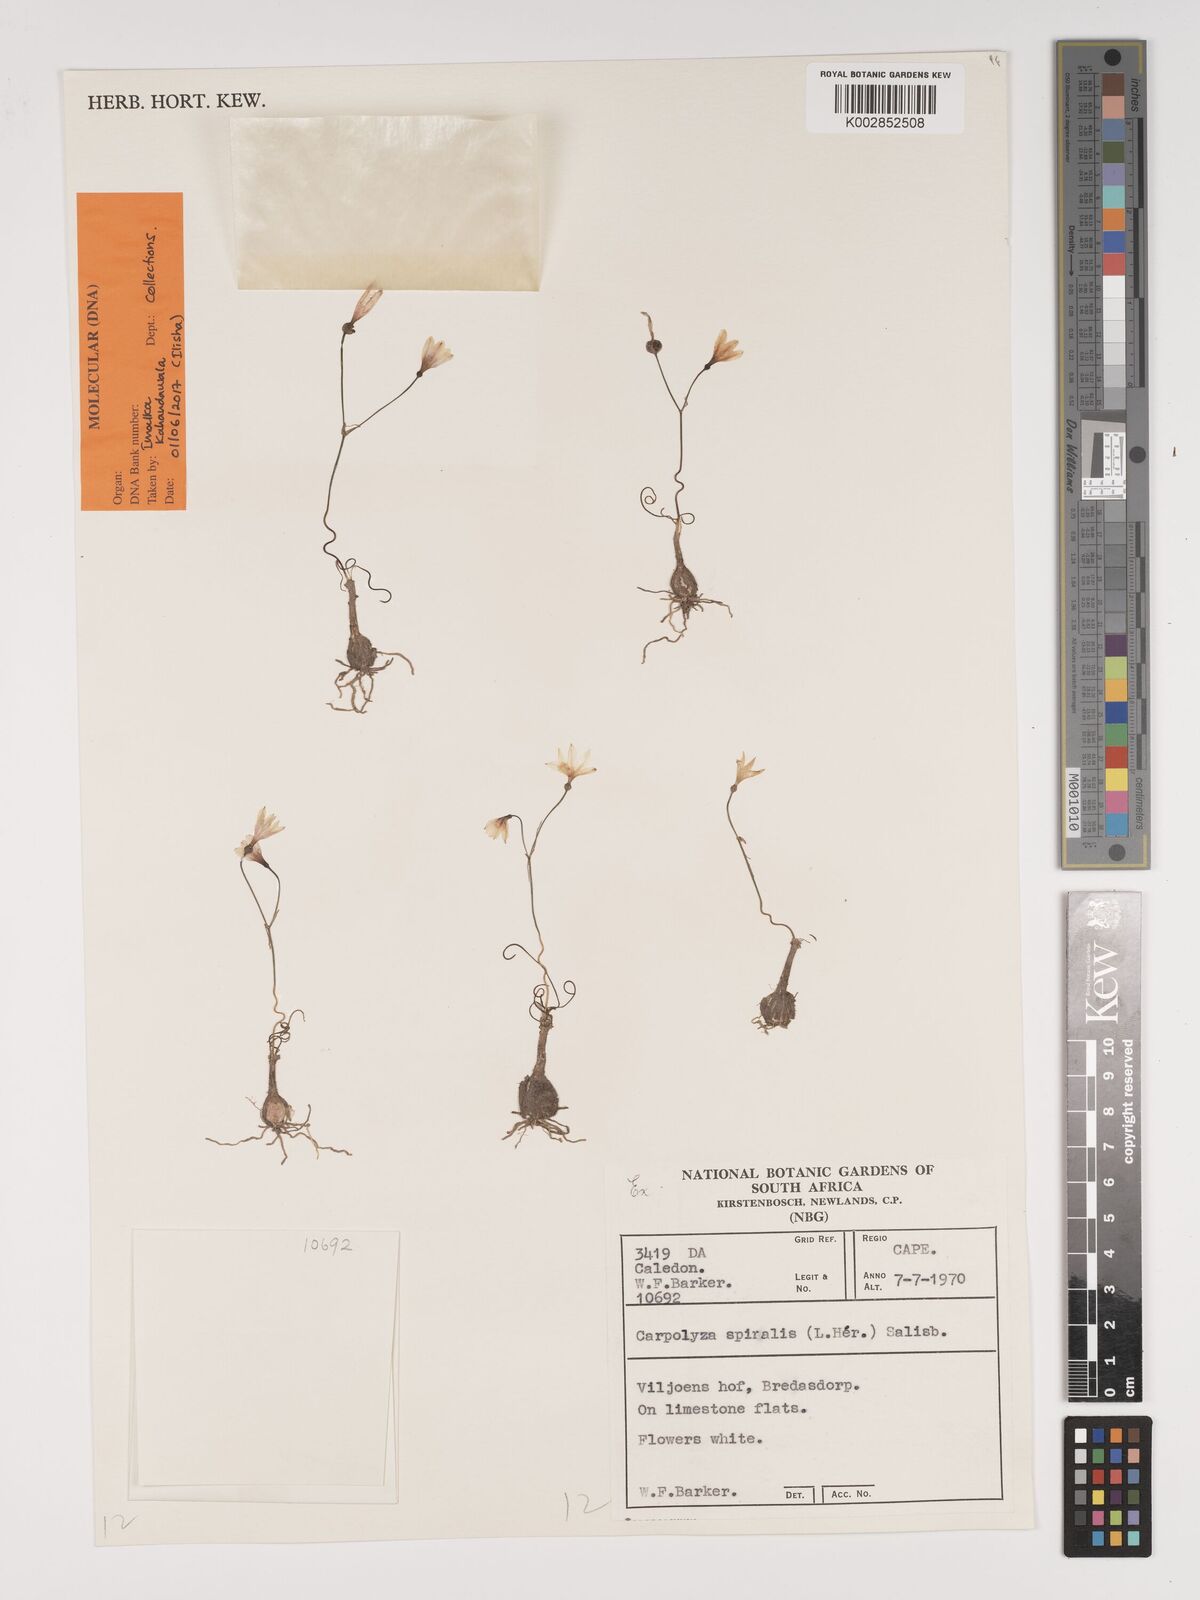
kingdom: Plantae
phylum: Tracheophyta
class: Liliopsida
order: Asparagales
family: Amaryllidaceae
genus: Strumaria
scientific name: Strumaria spiralis
